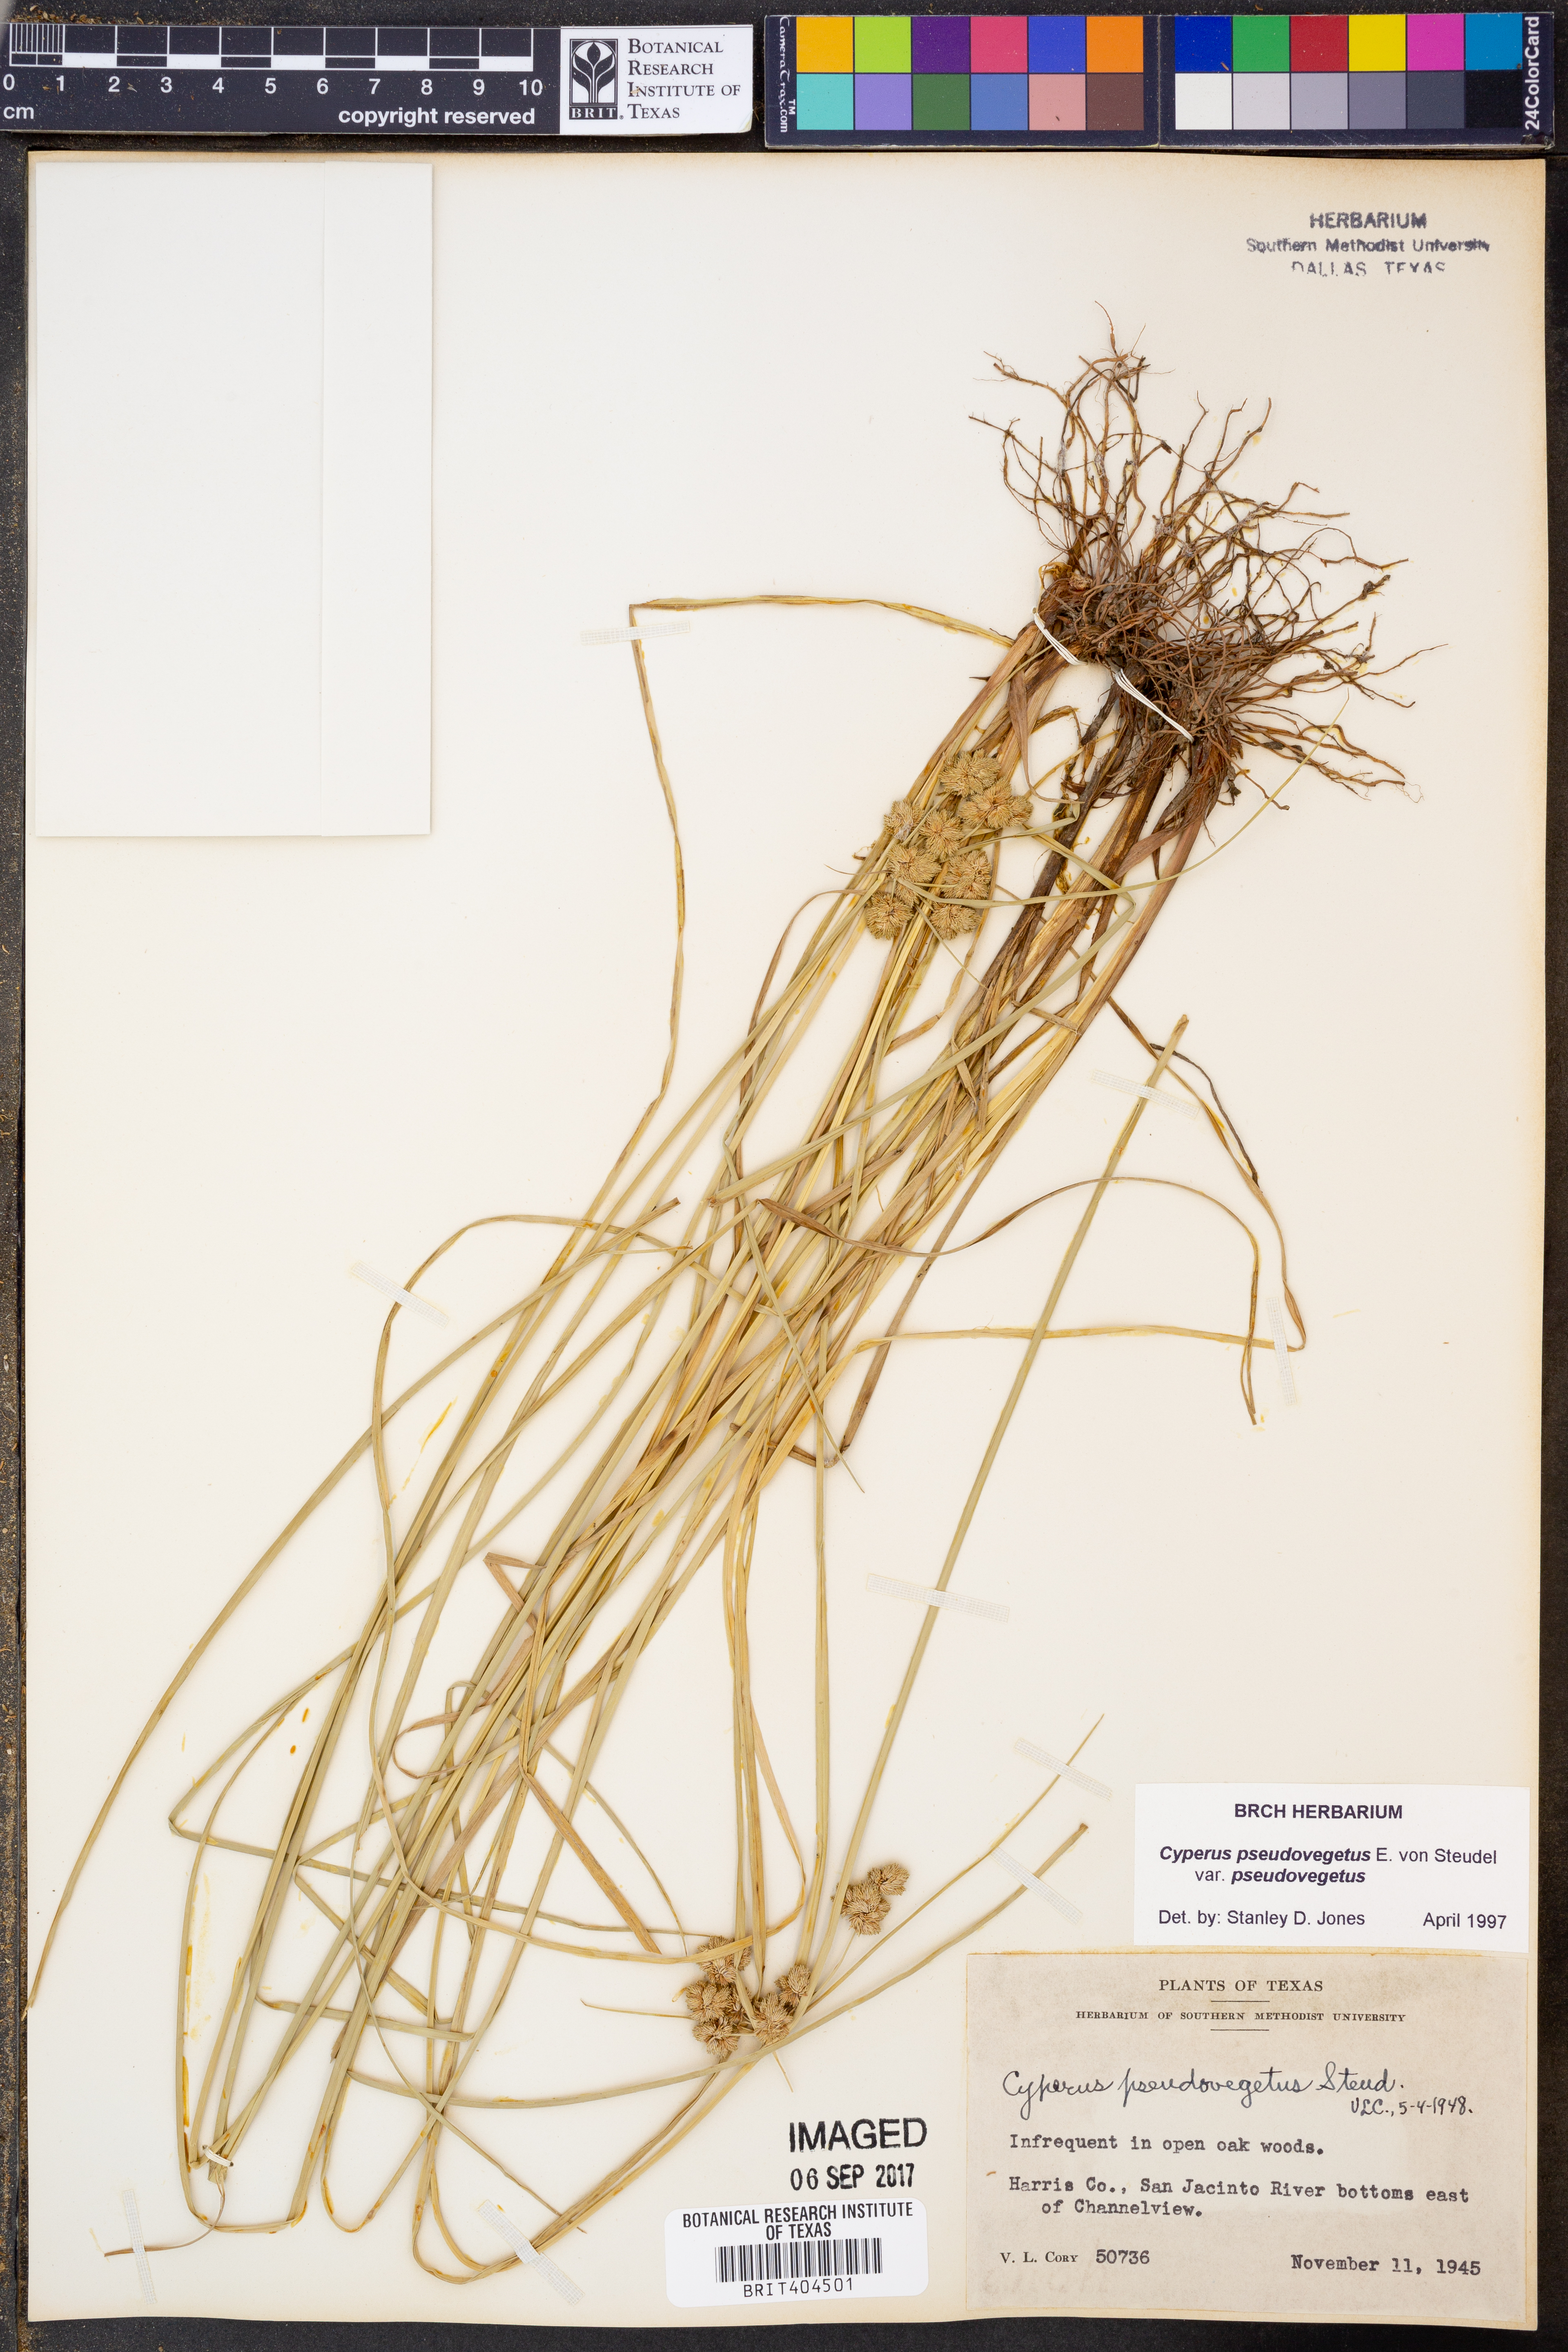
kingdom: Plantae
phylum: Tracheophyta
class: Liliopsida
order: Poales
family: Cyperaceae
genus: Cyperus
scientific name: Cyperus pseudovegetus
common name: Marsh flat sedge
